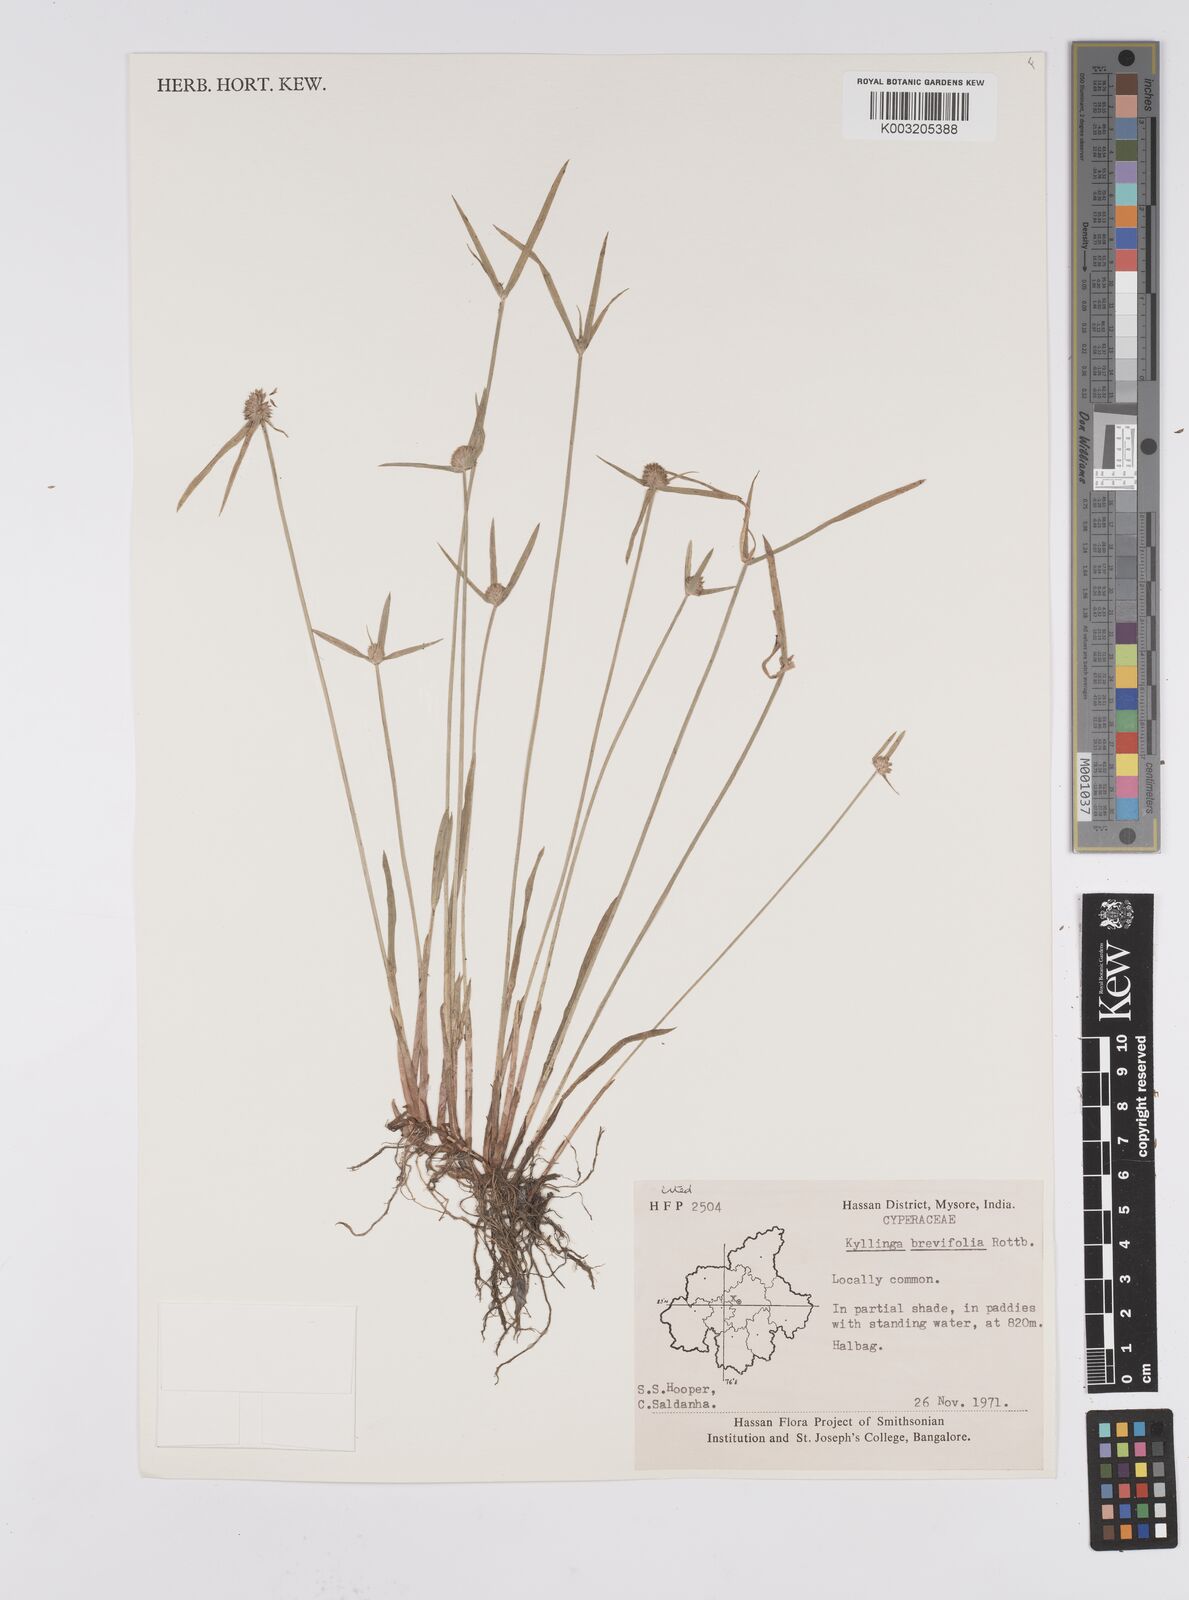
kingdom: Plantae
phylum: Tracheophyta
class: Liliopsida
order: Poales
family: Cyperaceae
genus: Cyperus
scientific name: Cyperus brevifolius
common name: Globe kyllinga
